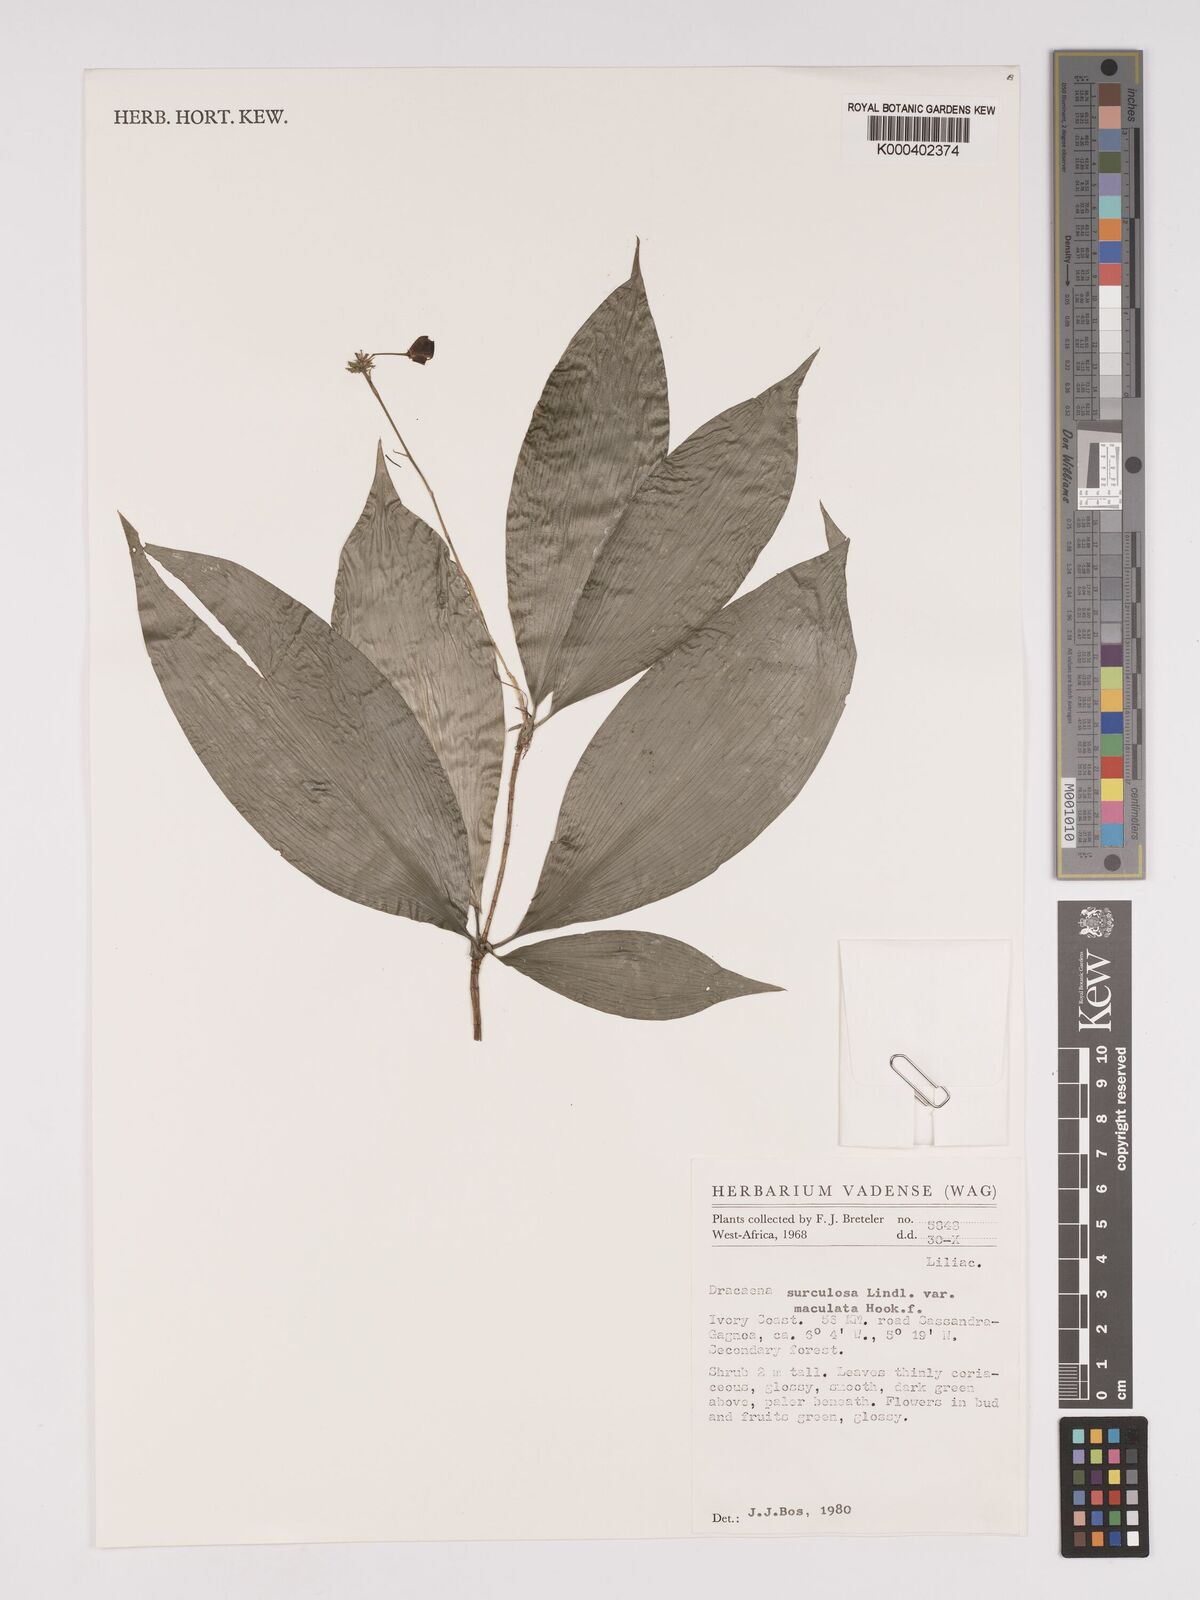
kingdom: Plantae
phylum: Tracheophyta
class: Liliopsida
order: Asparagales
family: Asparagaceae
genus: Dracaena
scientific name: Dracaena surculosa
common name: Spotted dracaena
